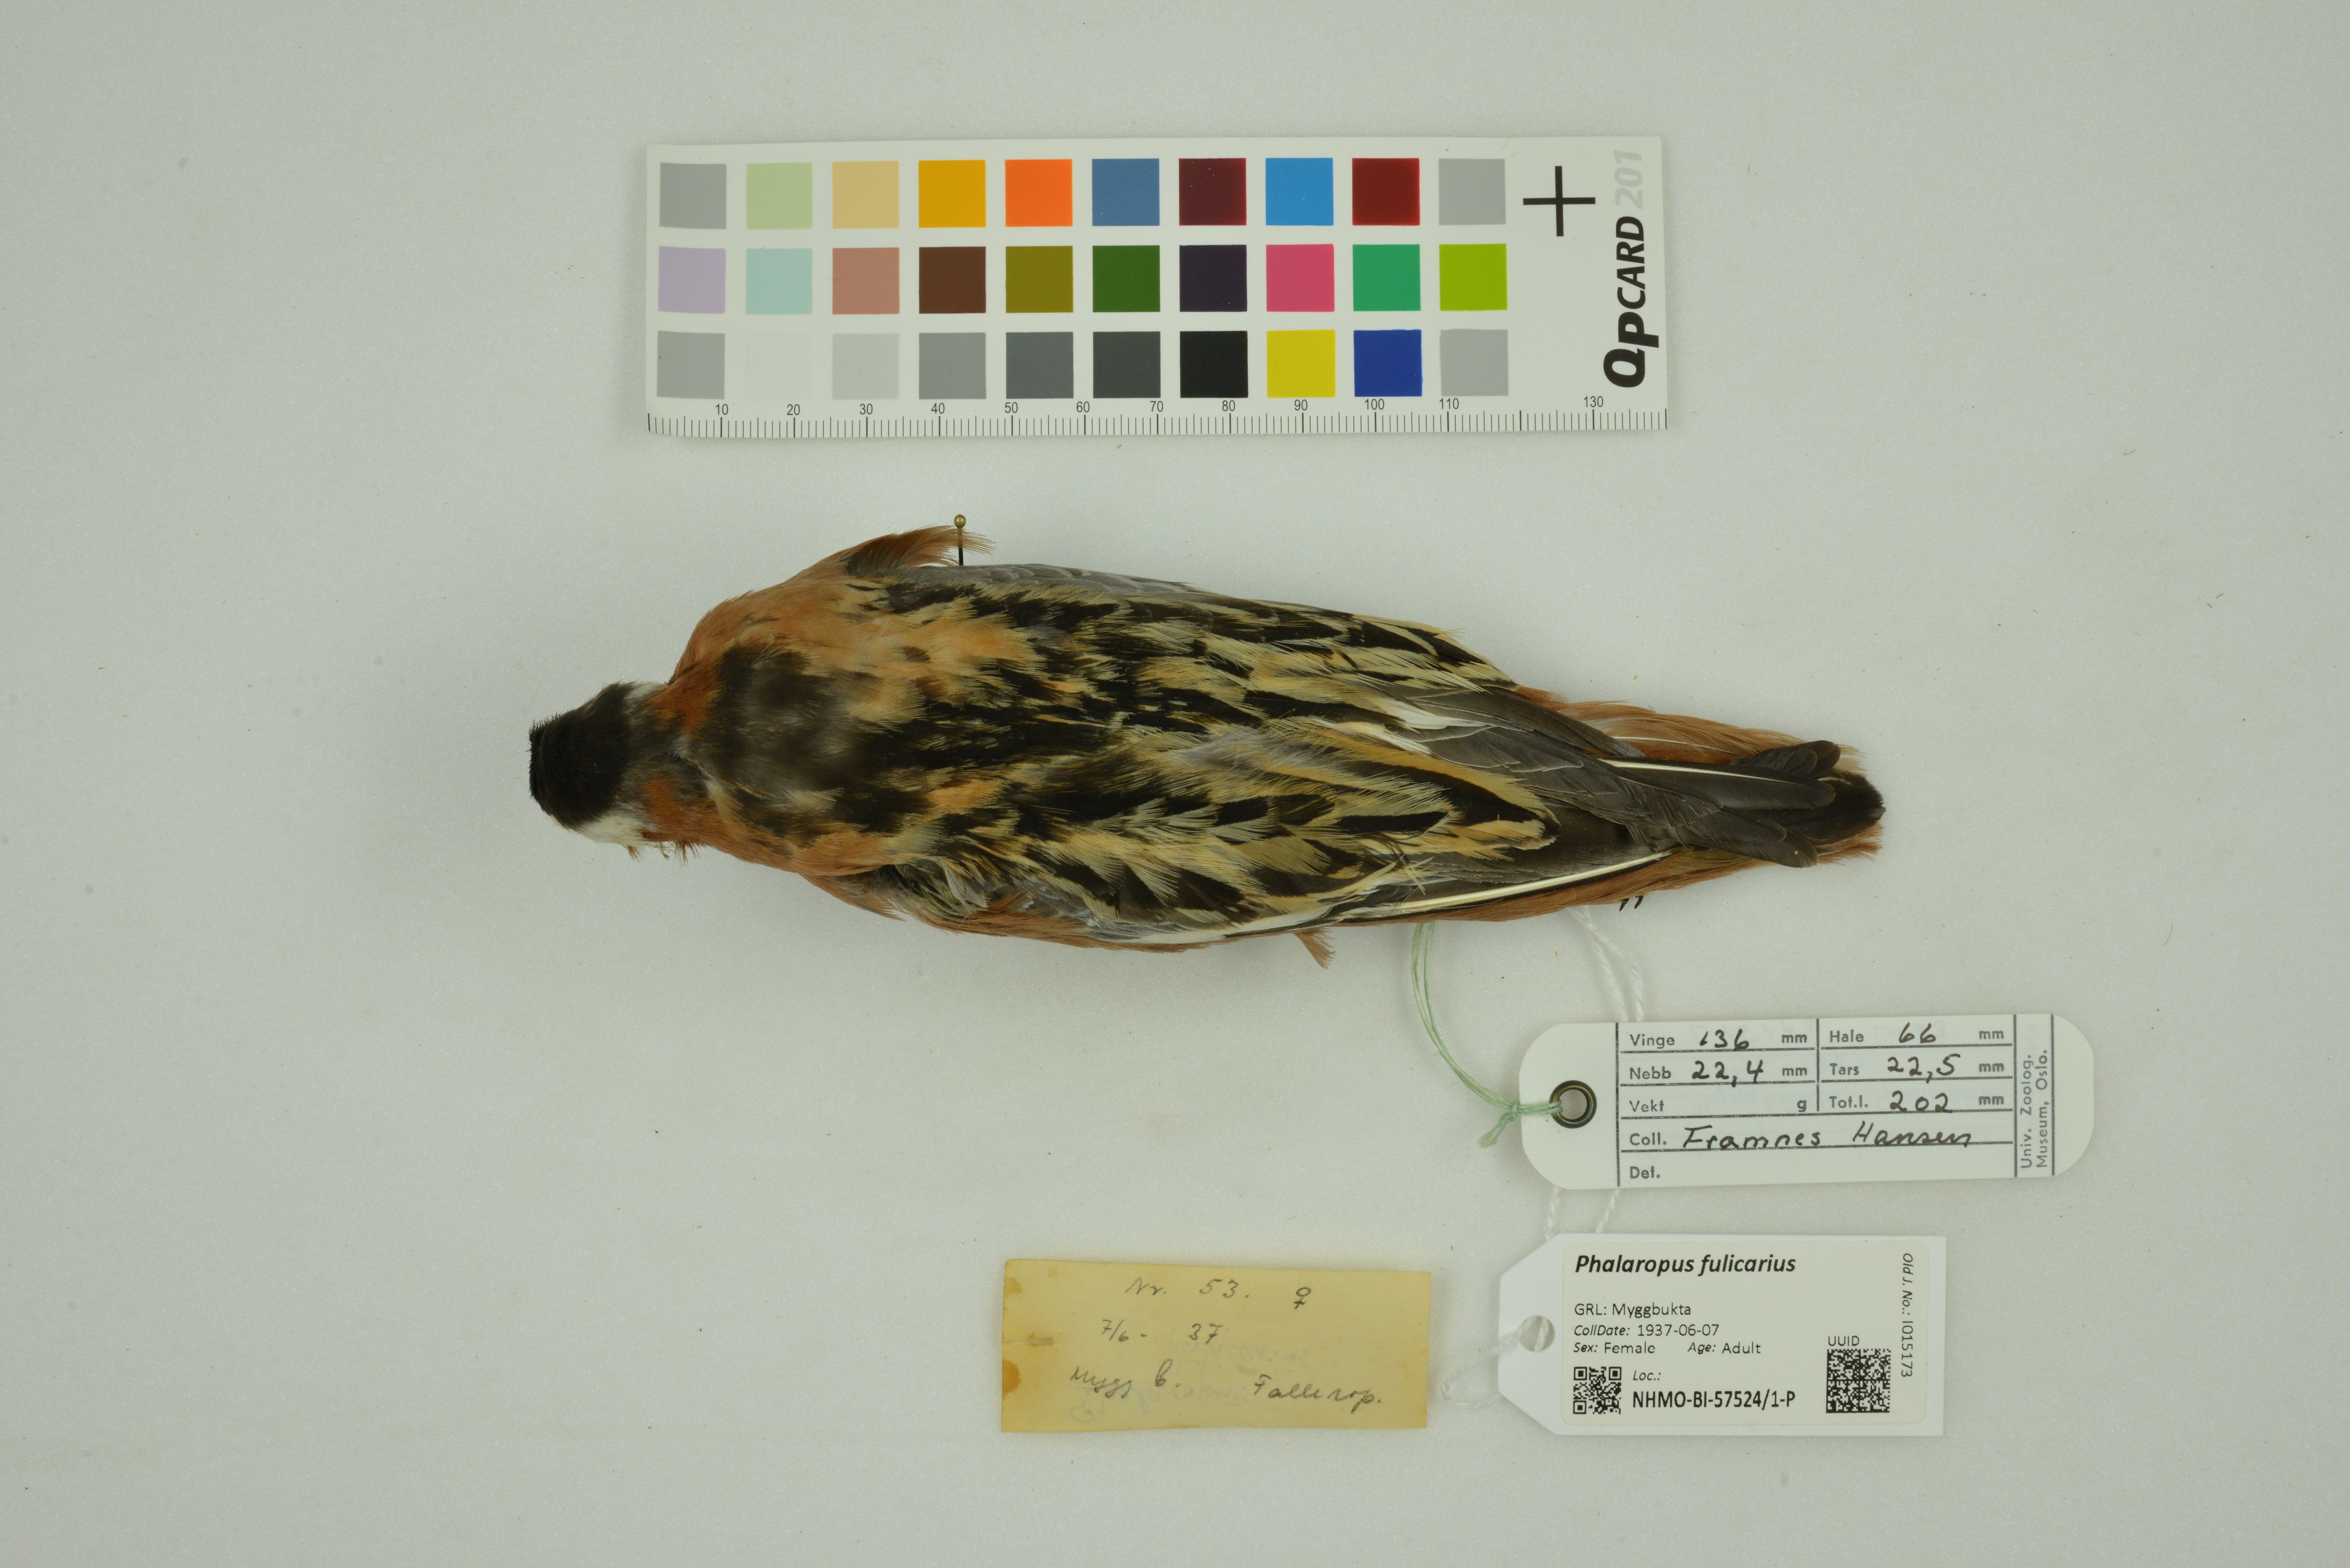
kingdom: Animalia
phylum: Chordata
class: Aves
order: Charadriiformes
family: Scolopacidae
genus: Phalaropus
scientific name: Phalaropus fulicarius
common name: Red phalarope
